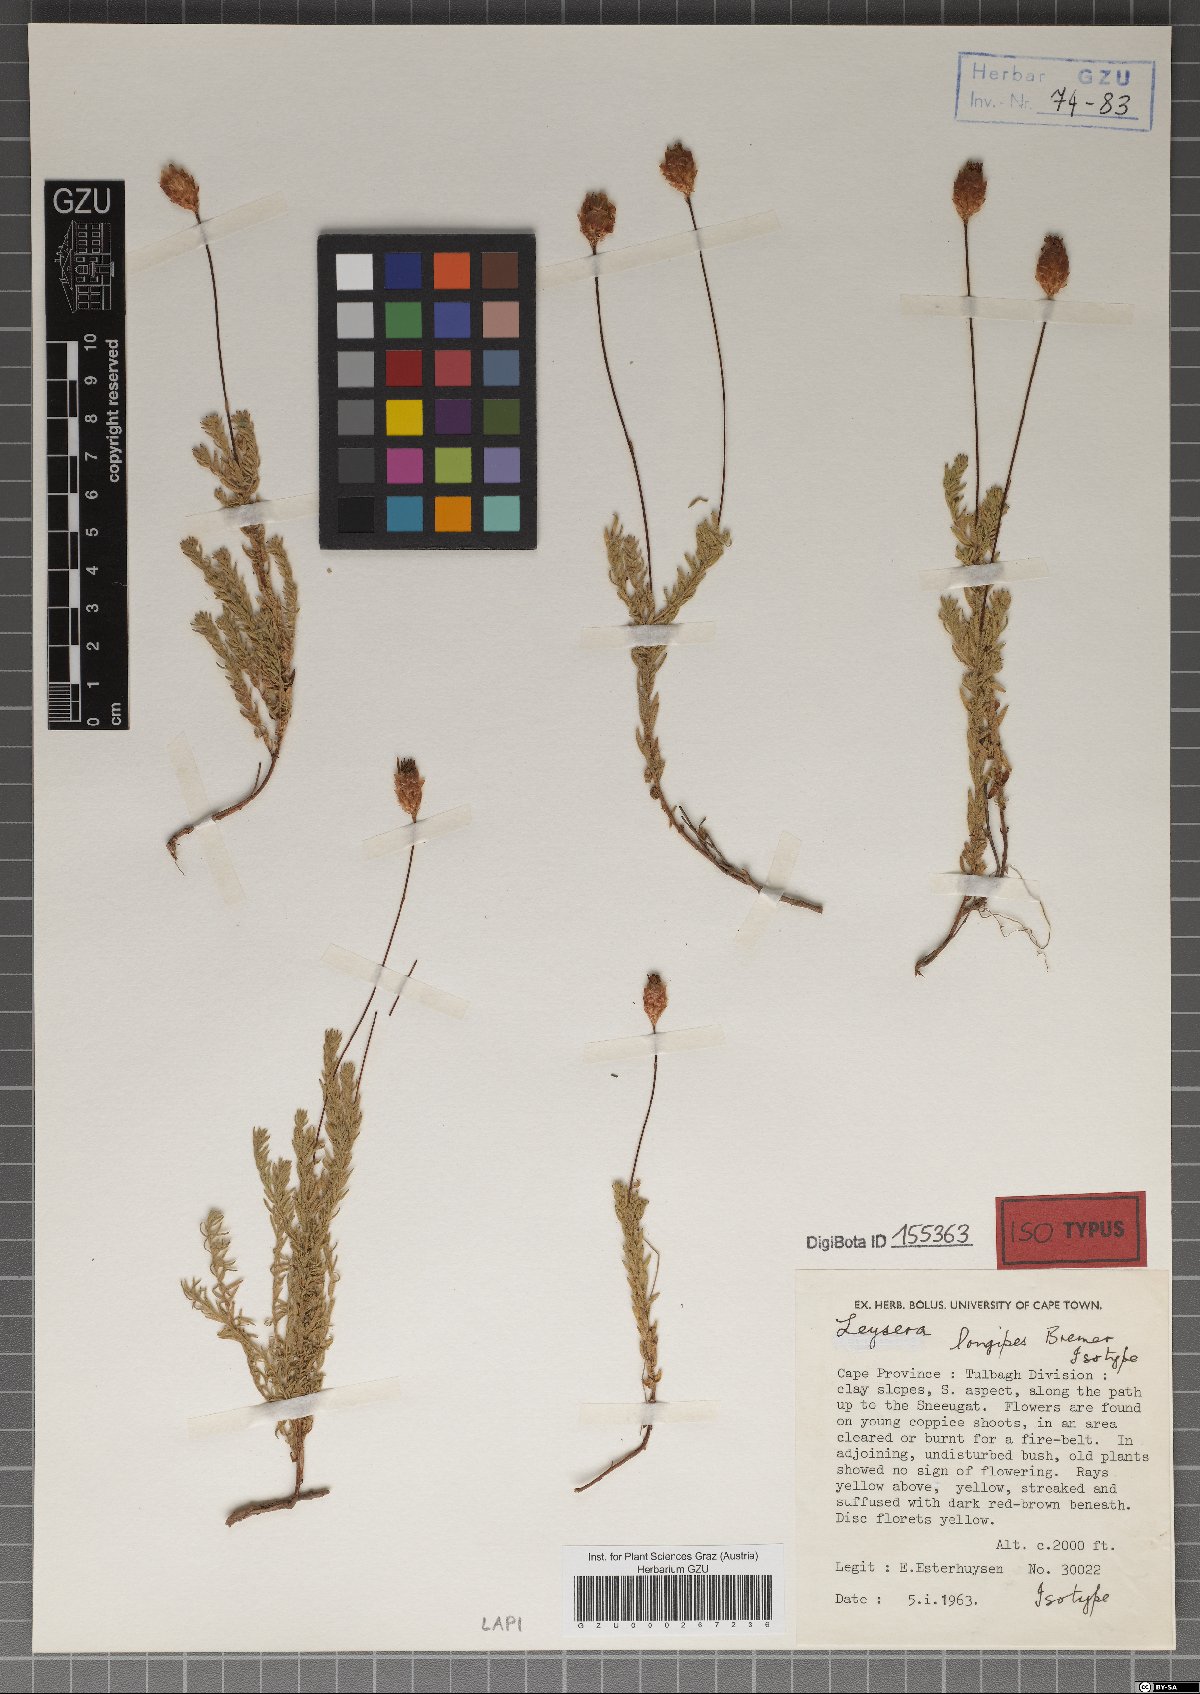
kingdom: Plantae
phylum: Tracheophyta
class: Magnoliopsida
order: Asterales
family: Asteraceae
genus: Oedera
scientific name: Oedera longipes
